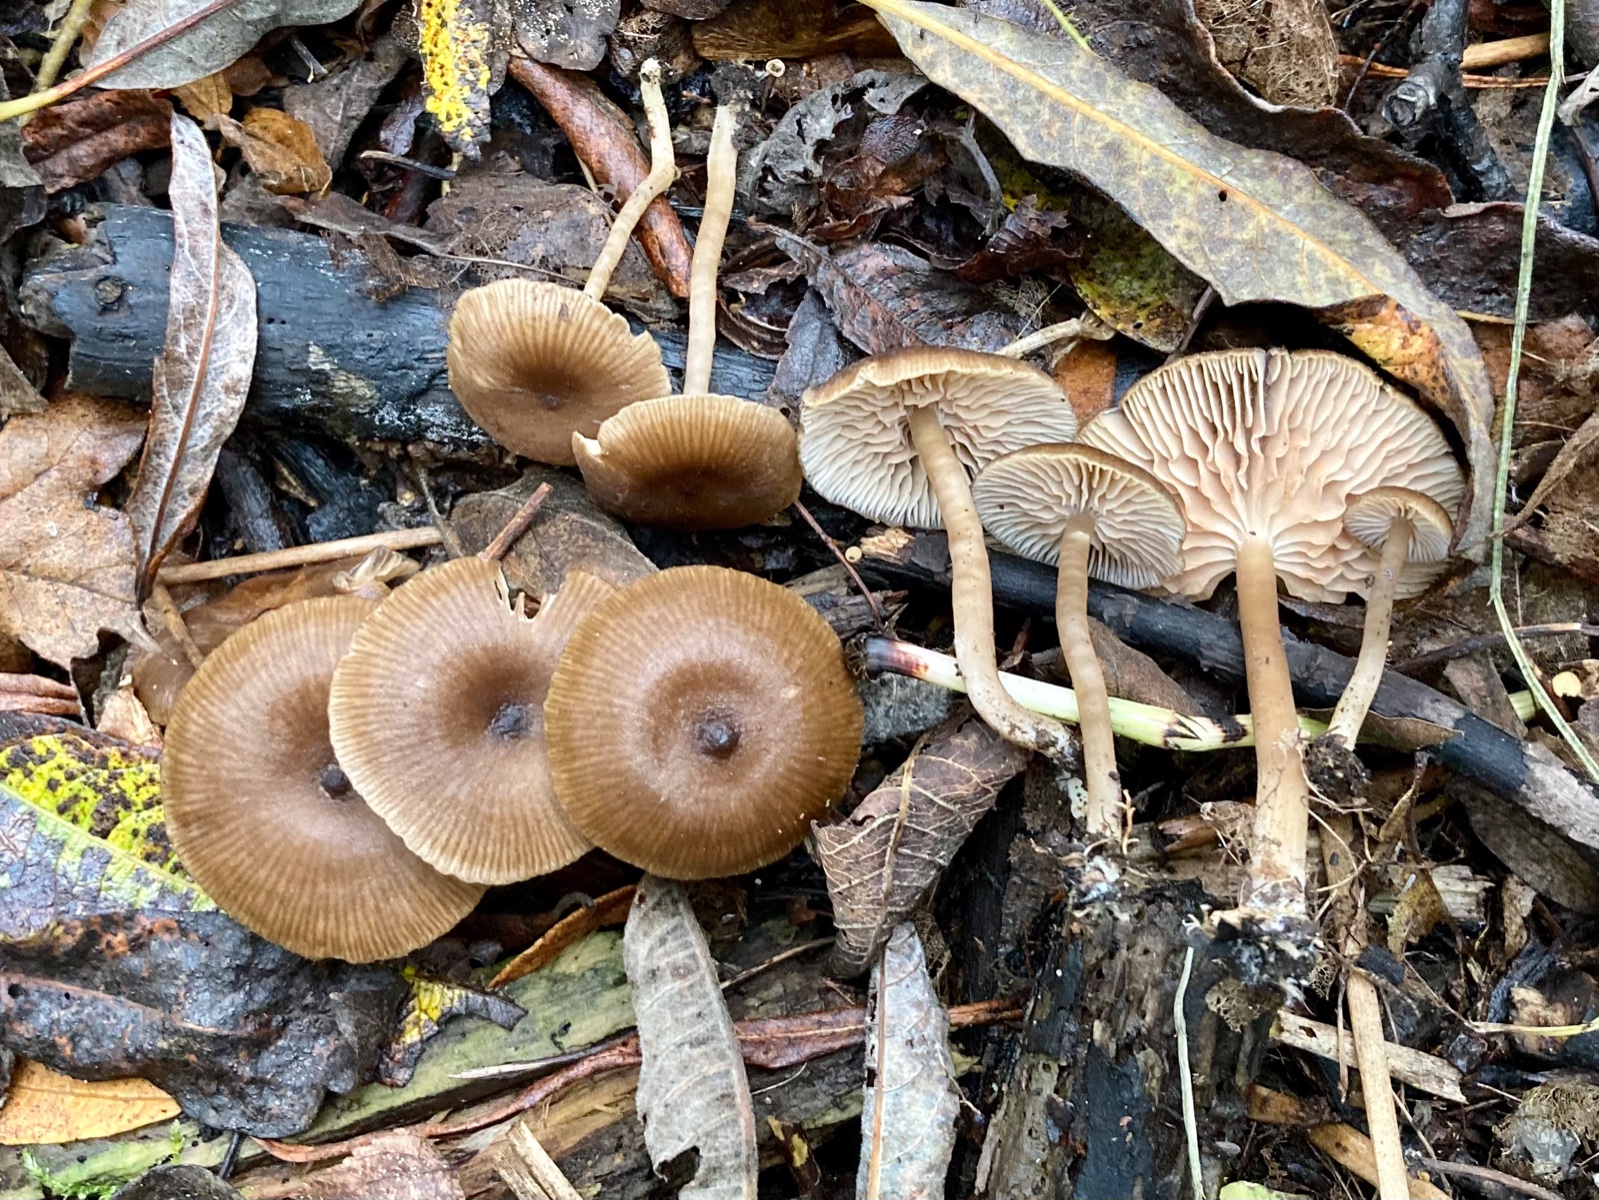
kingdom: Fungi
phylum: Basidiomycota
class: Agaricomycetes
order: Agaricales
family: Entolomataceae
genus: Entoloma
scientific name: Entoloma politum
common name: poleret rødblad
